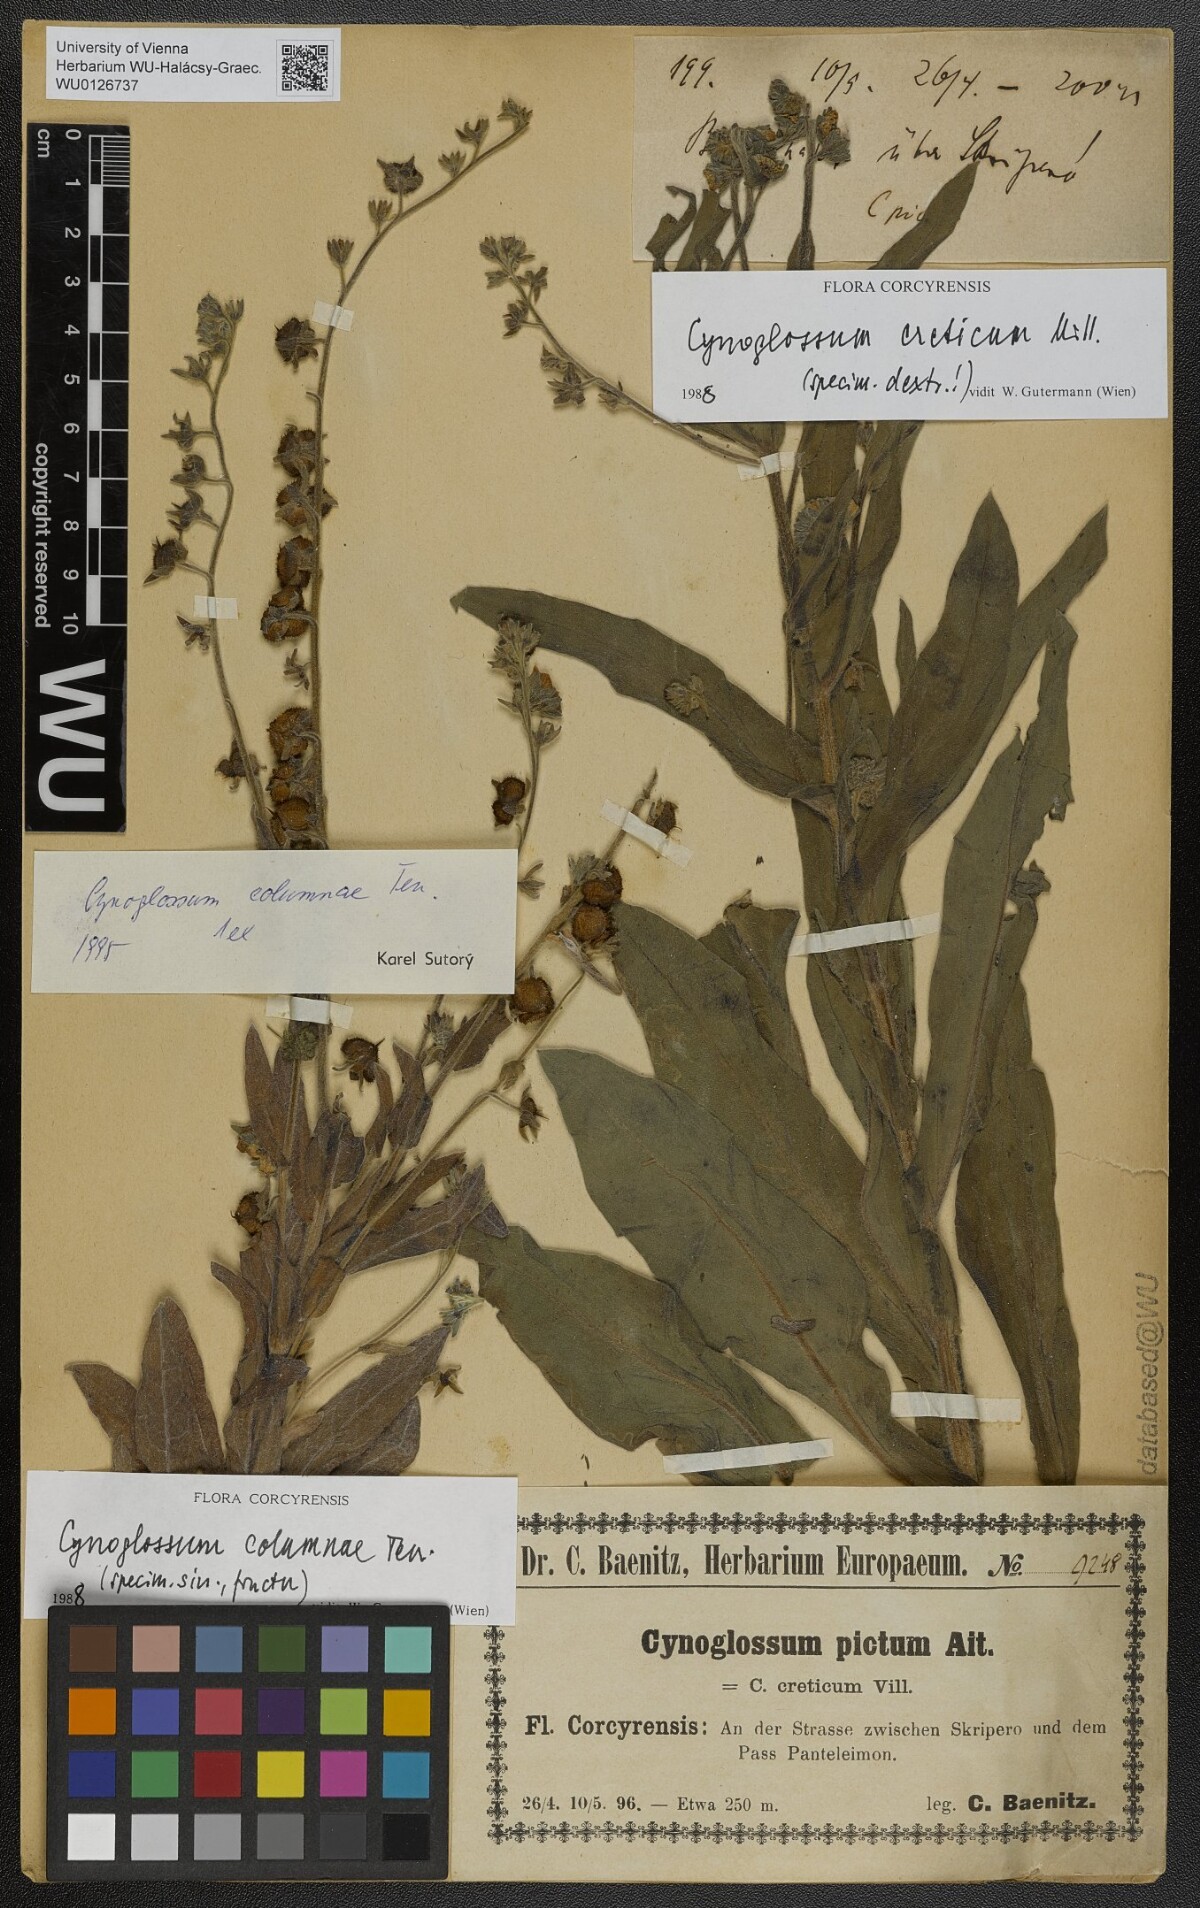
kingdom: Plantae
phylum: Tracheophyta
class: Magnoliopsida
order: Boraginales
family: Boraginaceae
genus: Cynoglossum
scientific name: Cynoglossum creticum
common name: Blue hound's tongue
